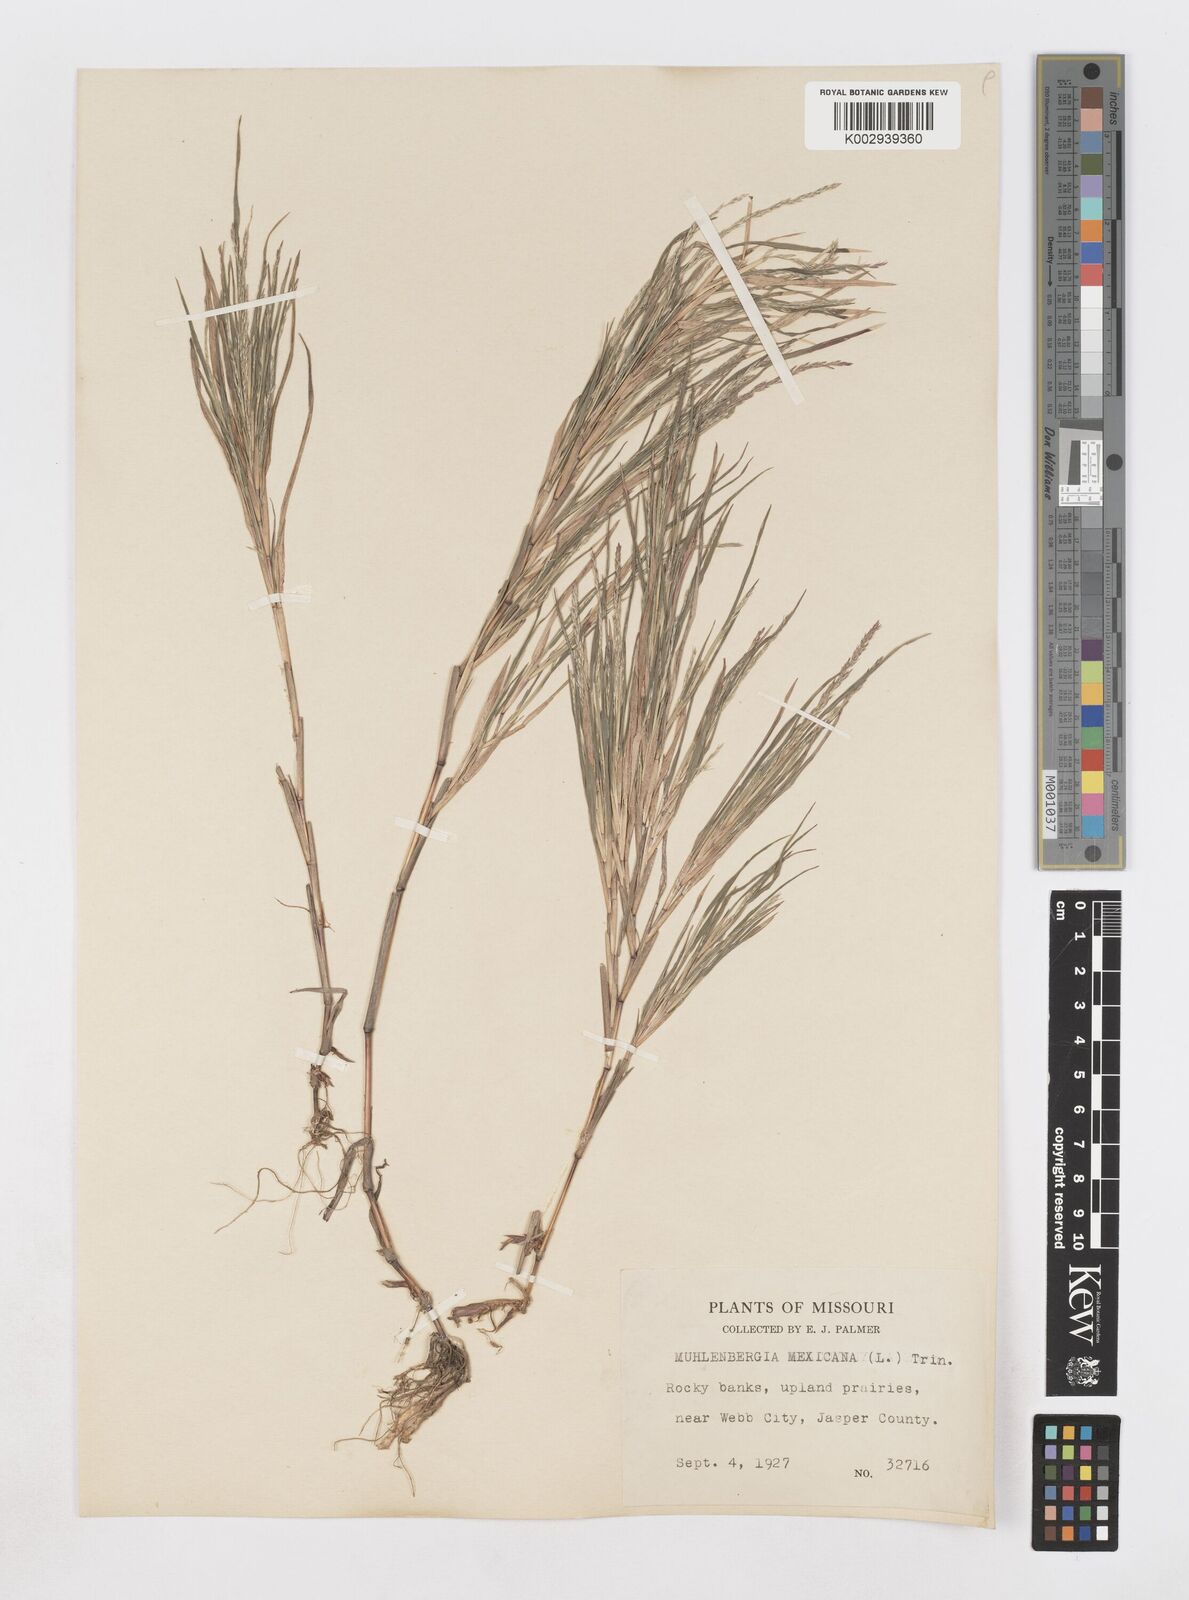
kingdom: Plantae
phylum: Tracheophyta
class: Liliopsida
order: Poales
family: Poaceae
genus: Muhlenbergia
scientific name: Muhlenbergia mexicana
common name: Mexican muhly
